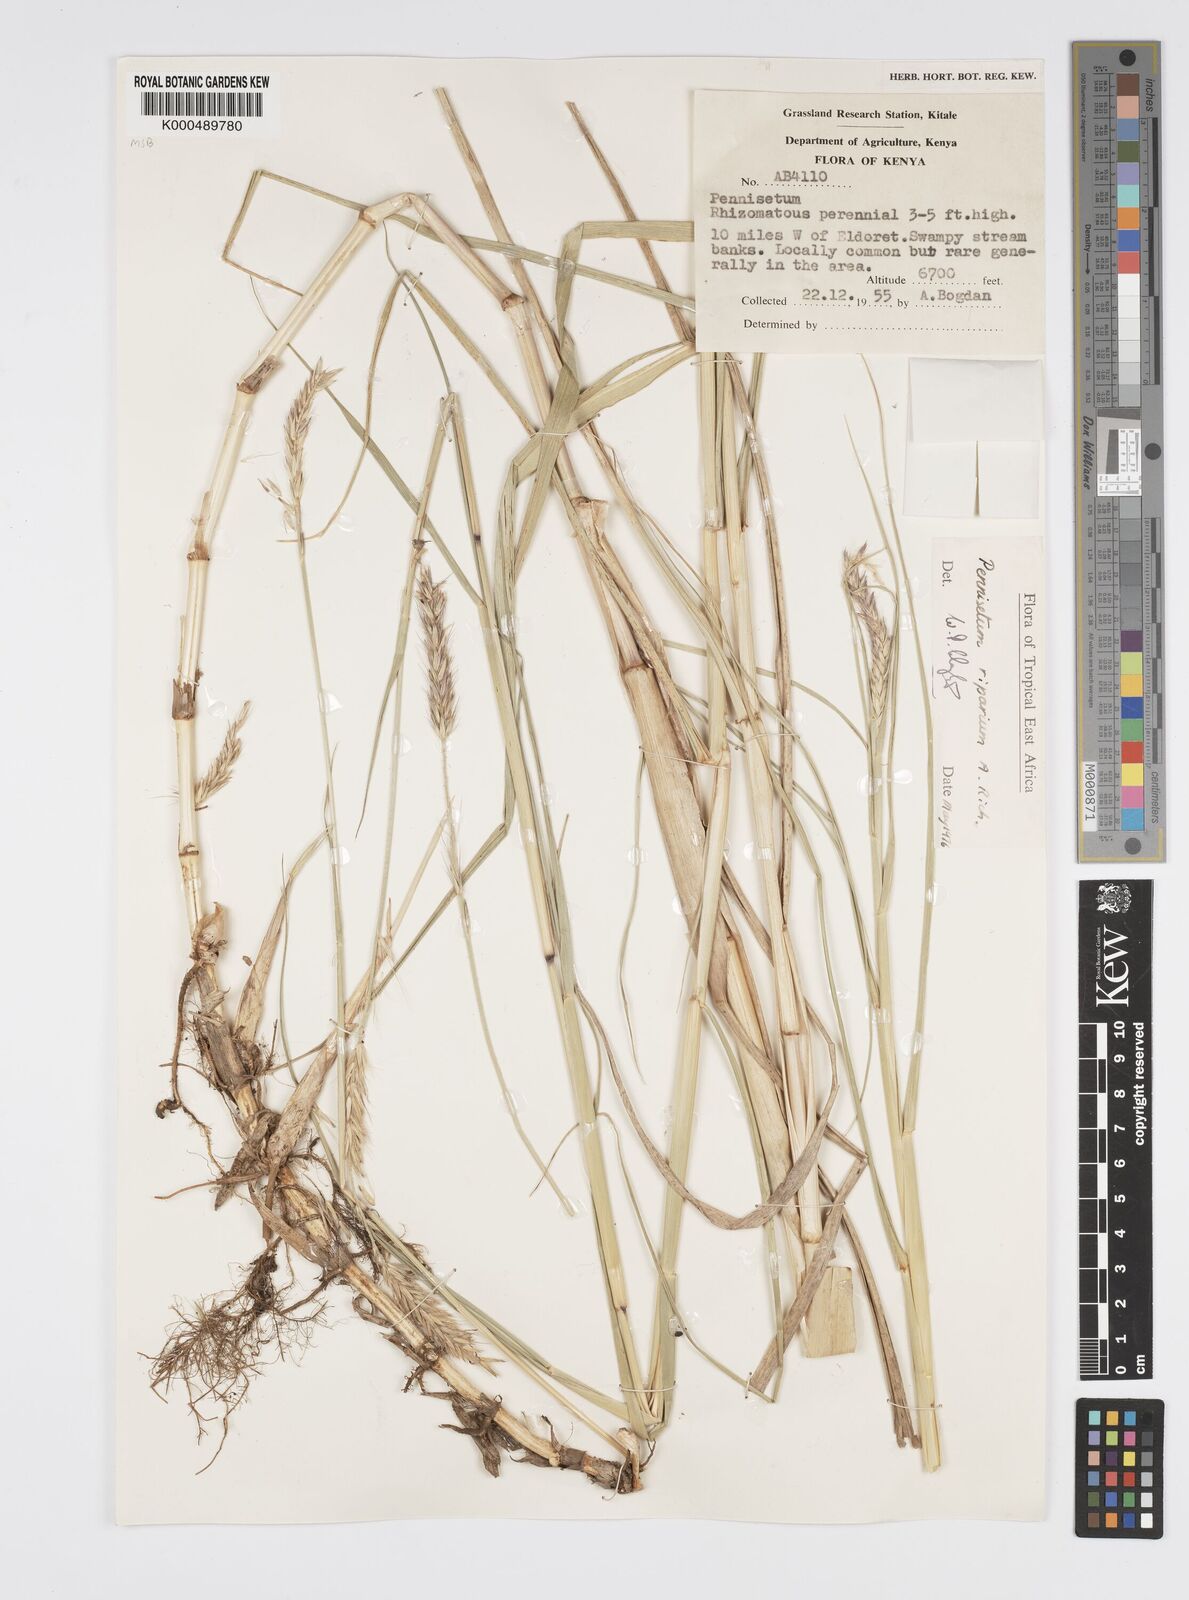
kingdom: Plantae
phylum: Tracheophyta
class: Liliopsida
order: Poales
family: Poaceae
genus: Cenchrus
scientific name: Cenchrus Pennisetum spec
